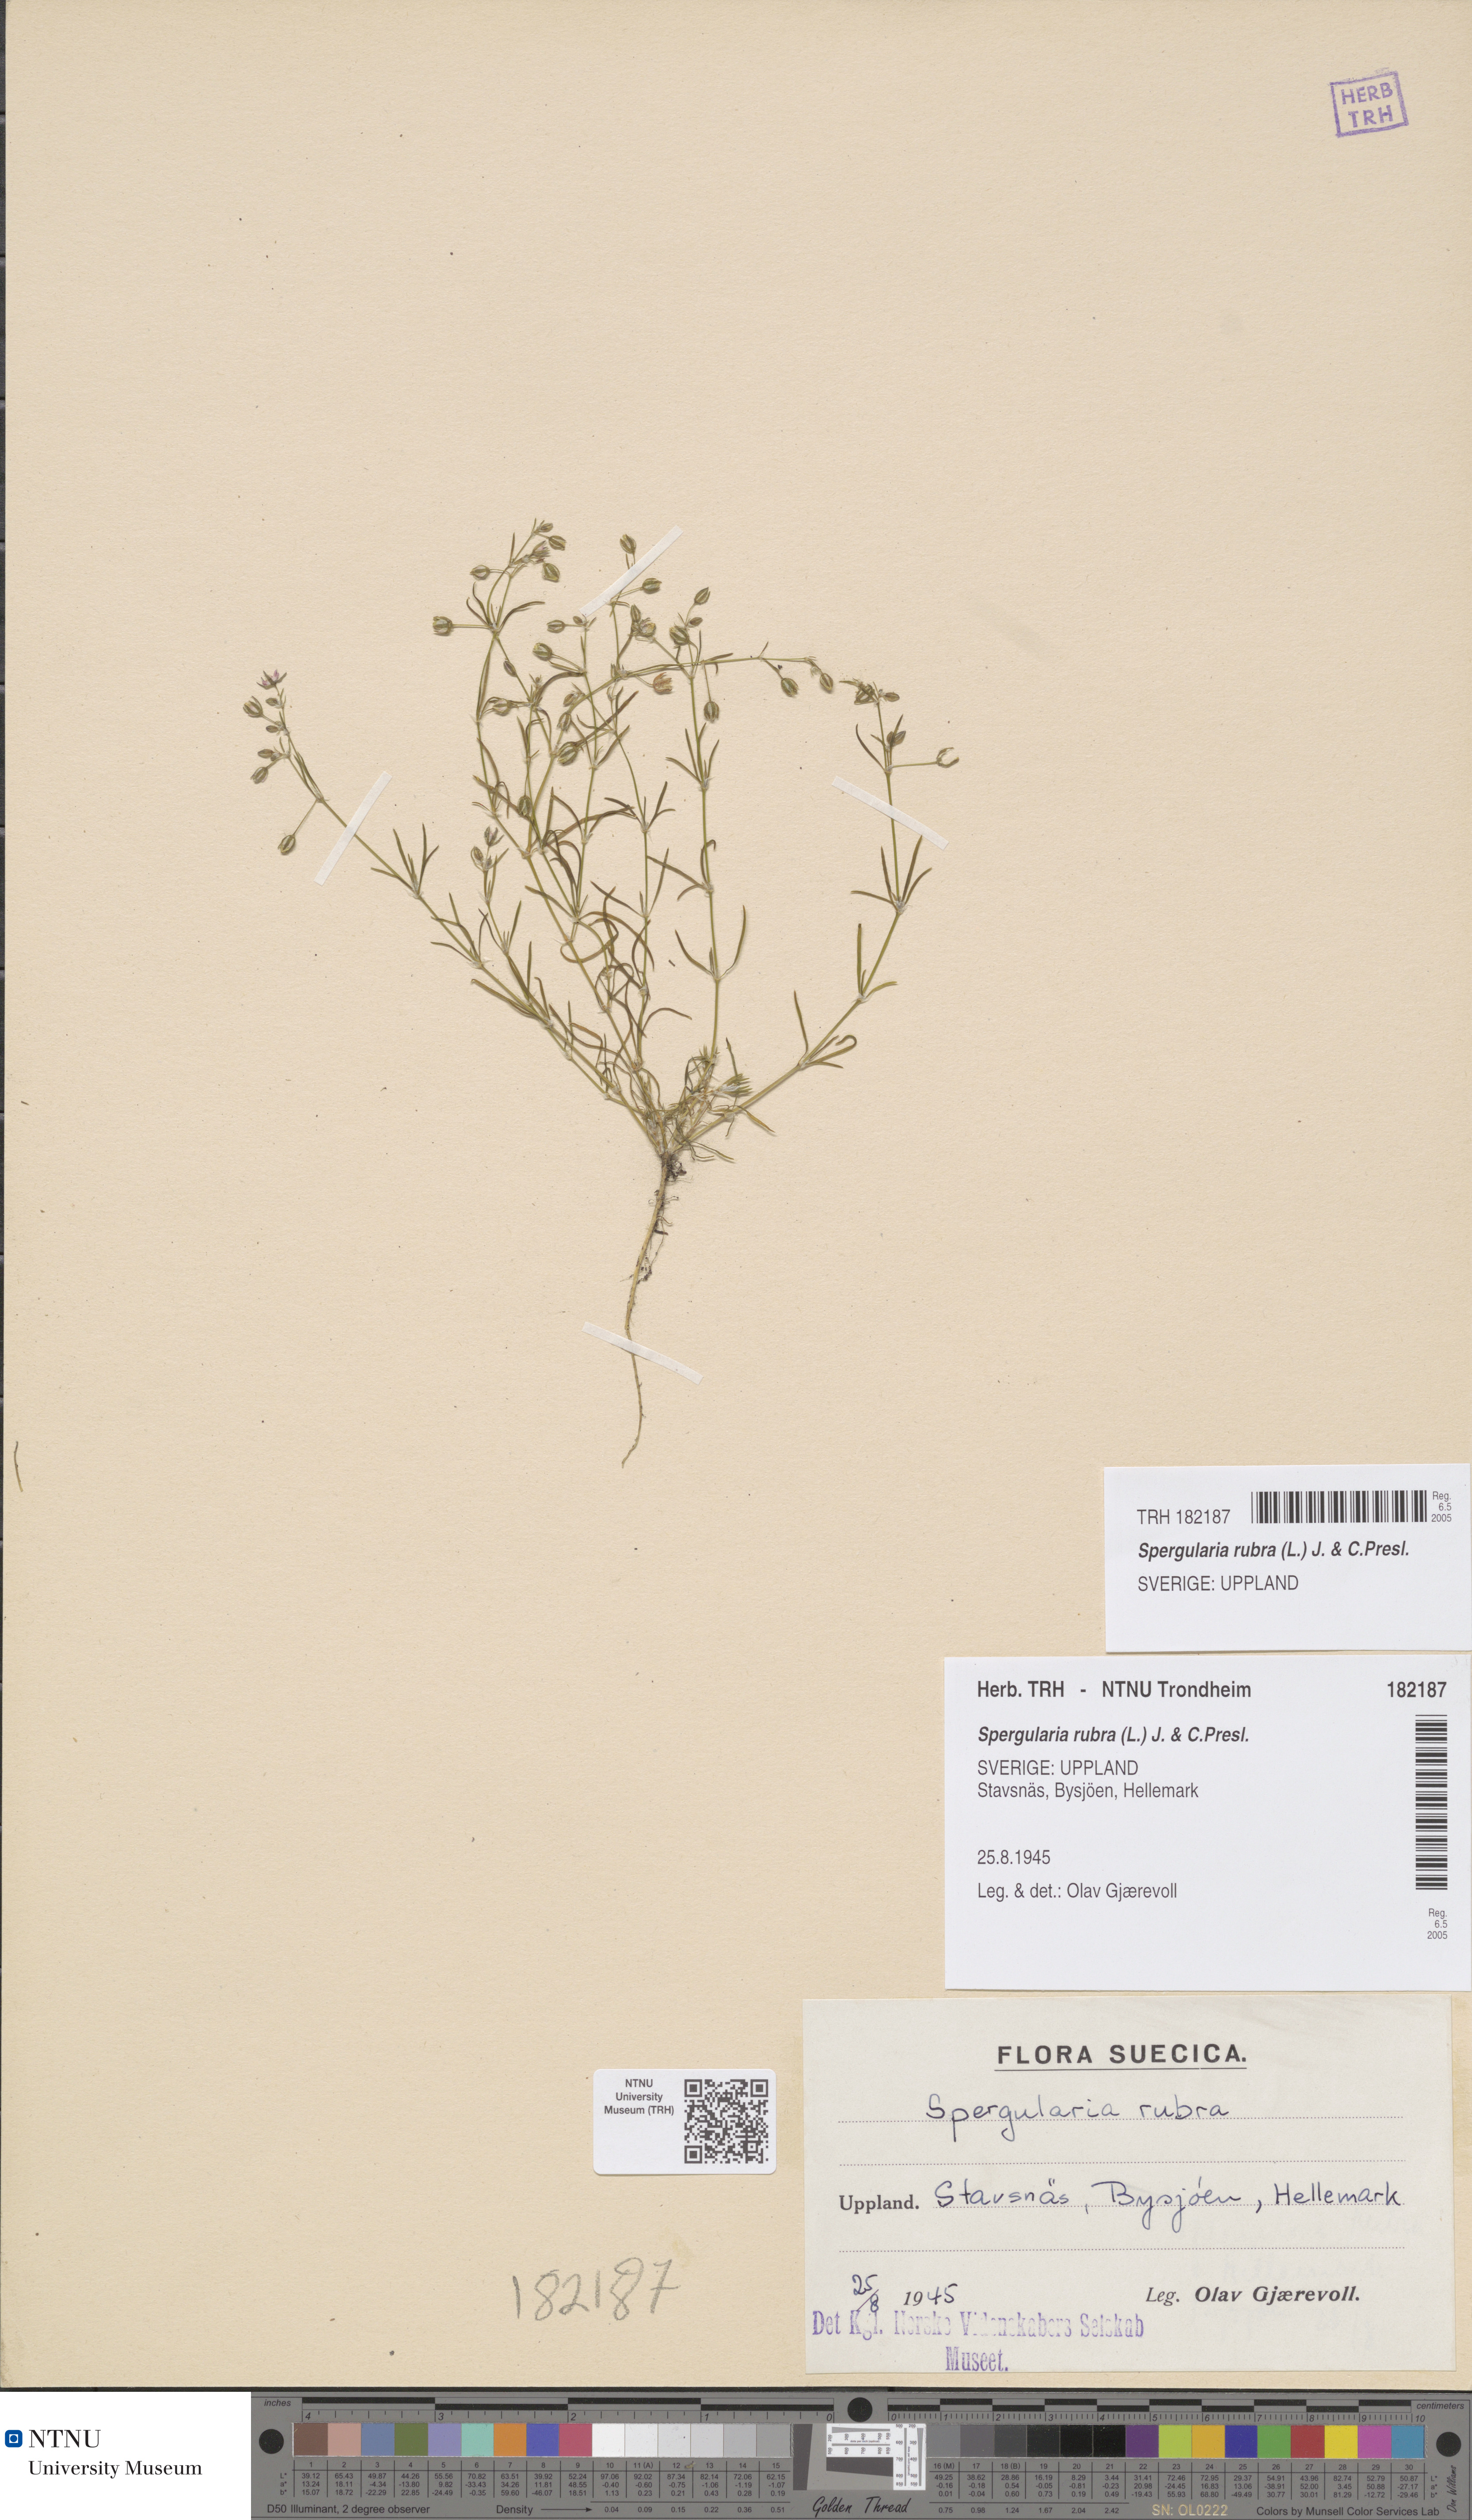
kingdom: Plantae
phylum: Tracheophyta
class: Magnoliopsida
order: Caryophyllales
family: Caryophyllaceae
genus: Spergularia
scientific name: Spergularia rubra
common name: Red sand-spurrey
